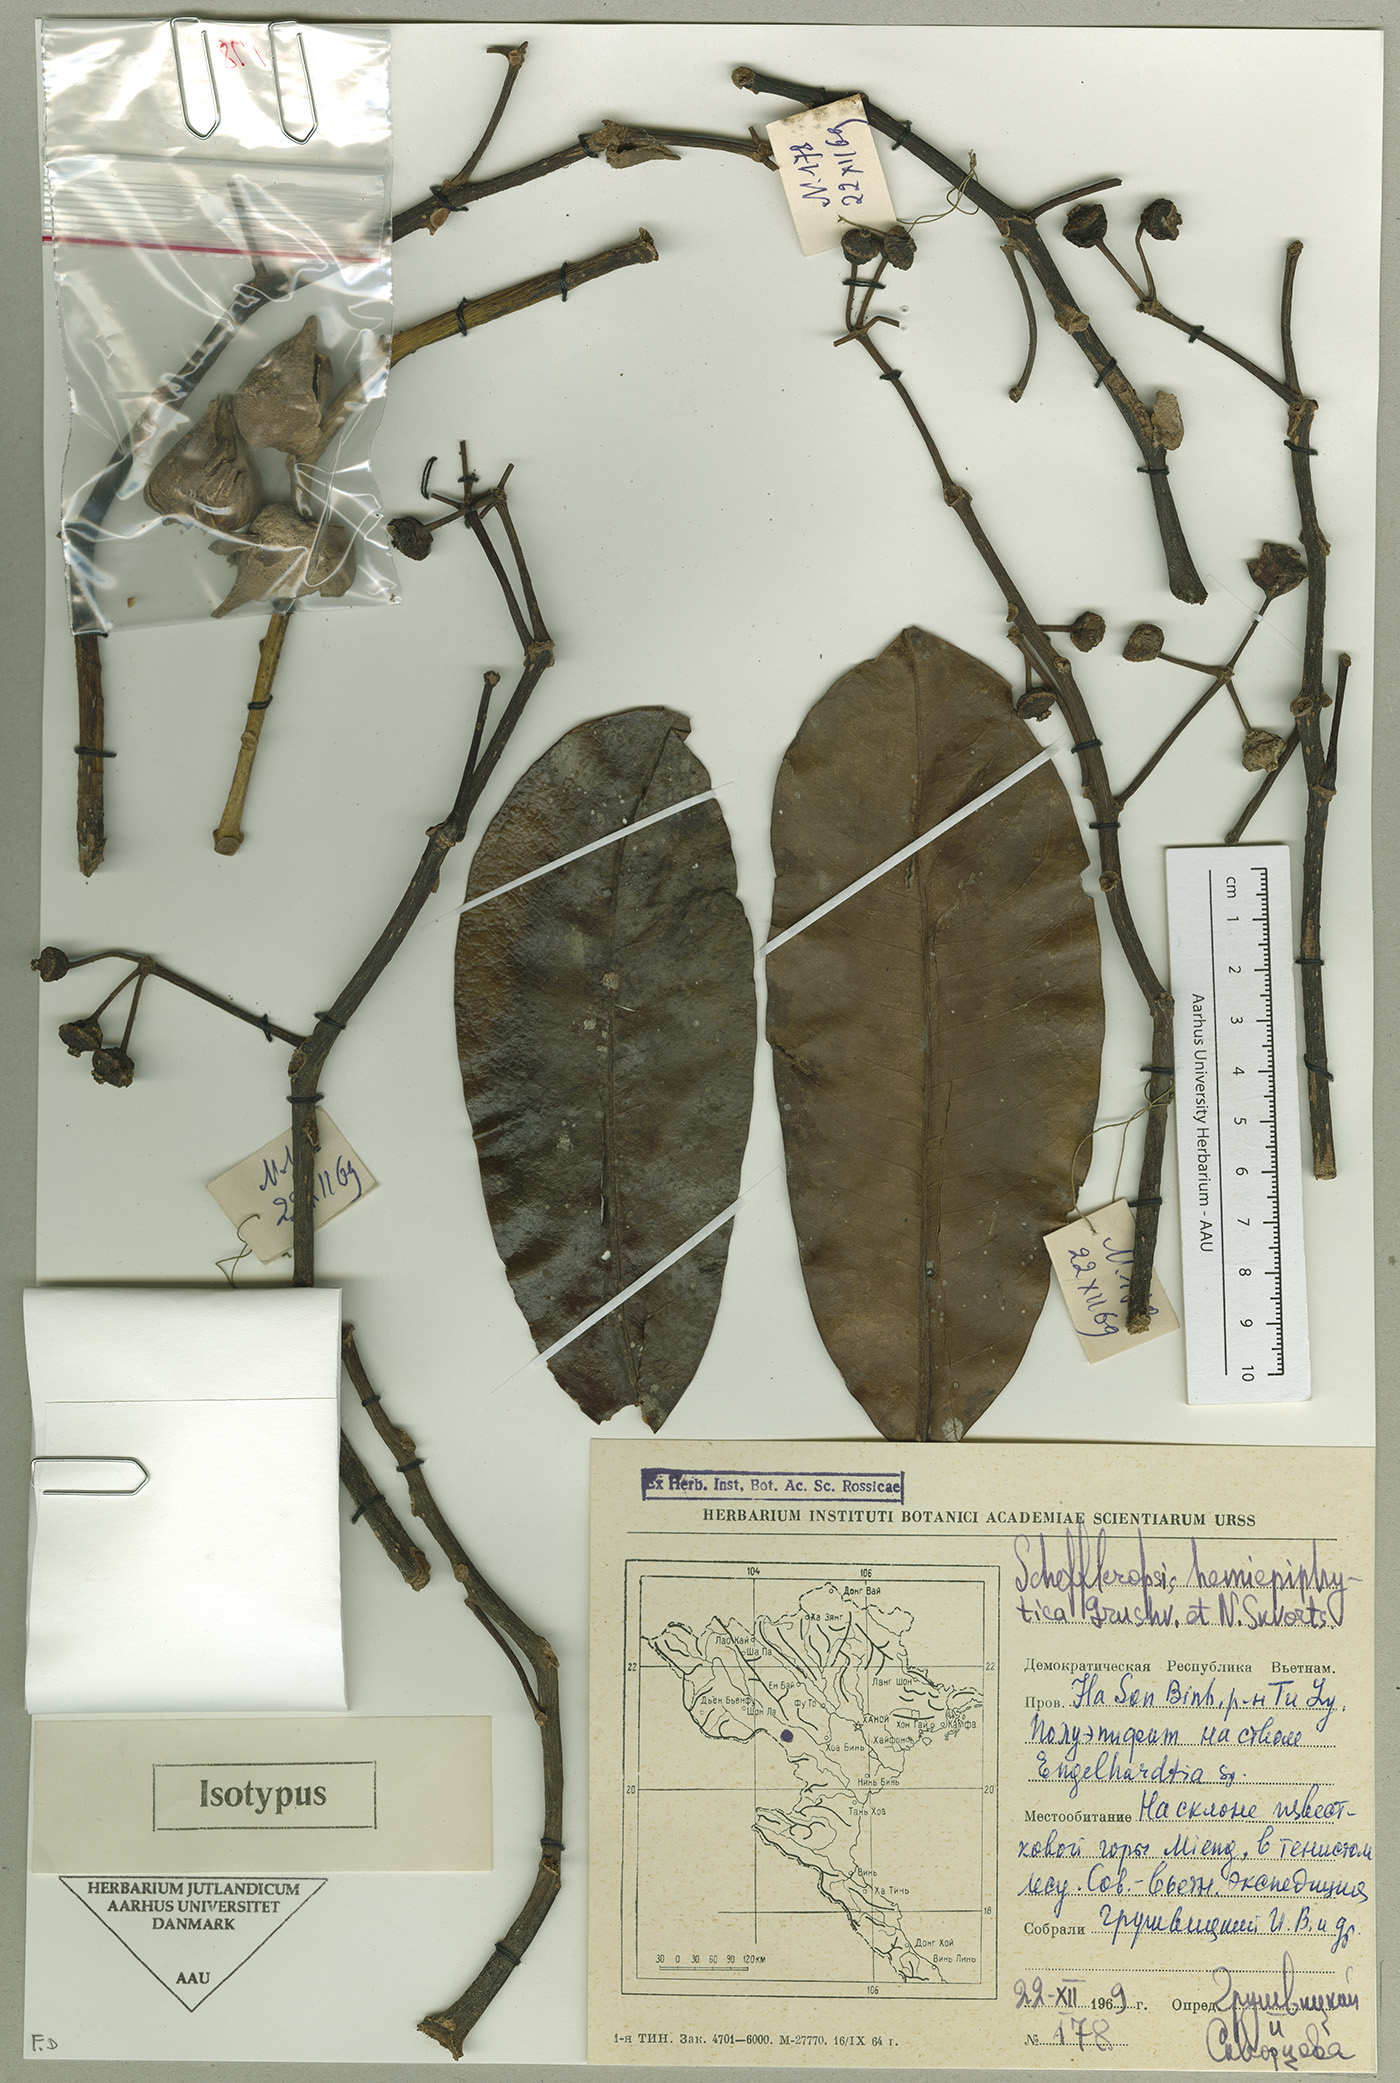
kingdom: Plantae
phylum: Tracheophyta
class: Magnoliopsida
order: Apiales
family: Araliaceae
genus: Heptapleurum
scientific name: Heptapleurum hemiepiphyticum
